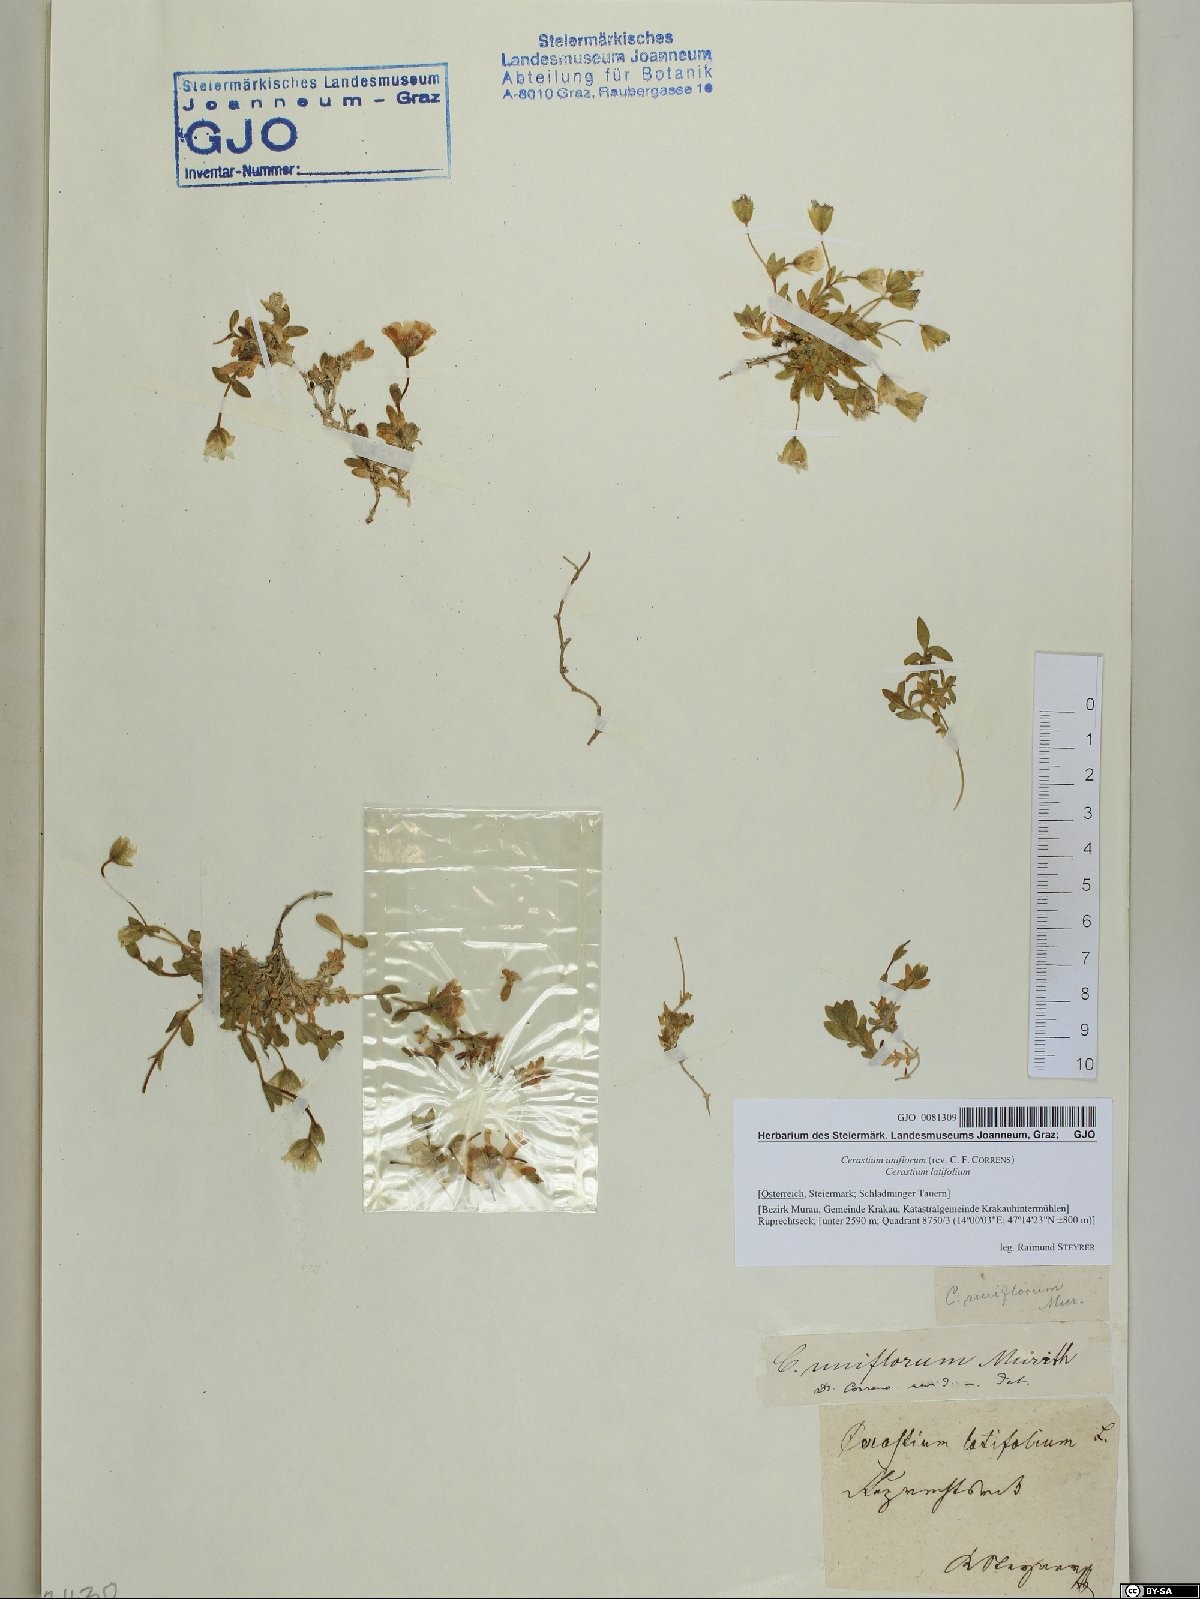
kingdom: Plantae
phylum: Tracheophyta
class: Magnoliopsida
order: Caryophyllales
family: Caryophyllaceae
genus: Cerastium
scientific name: Cerastium uniflorum
